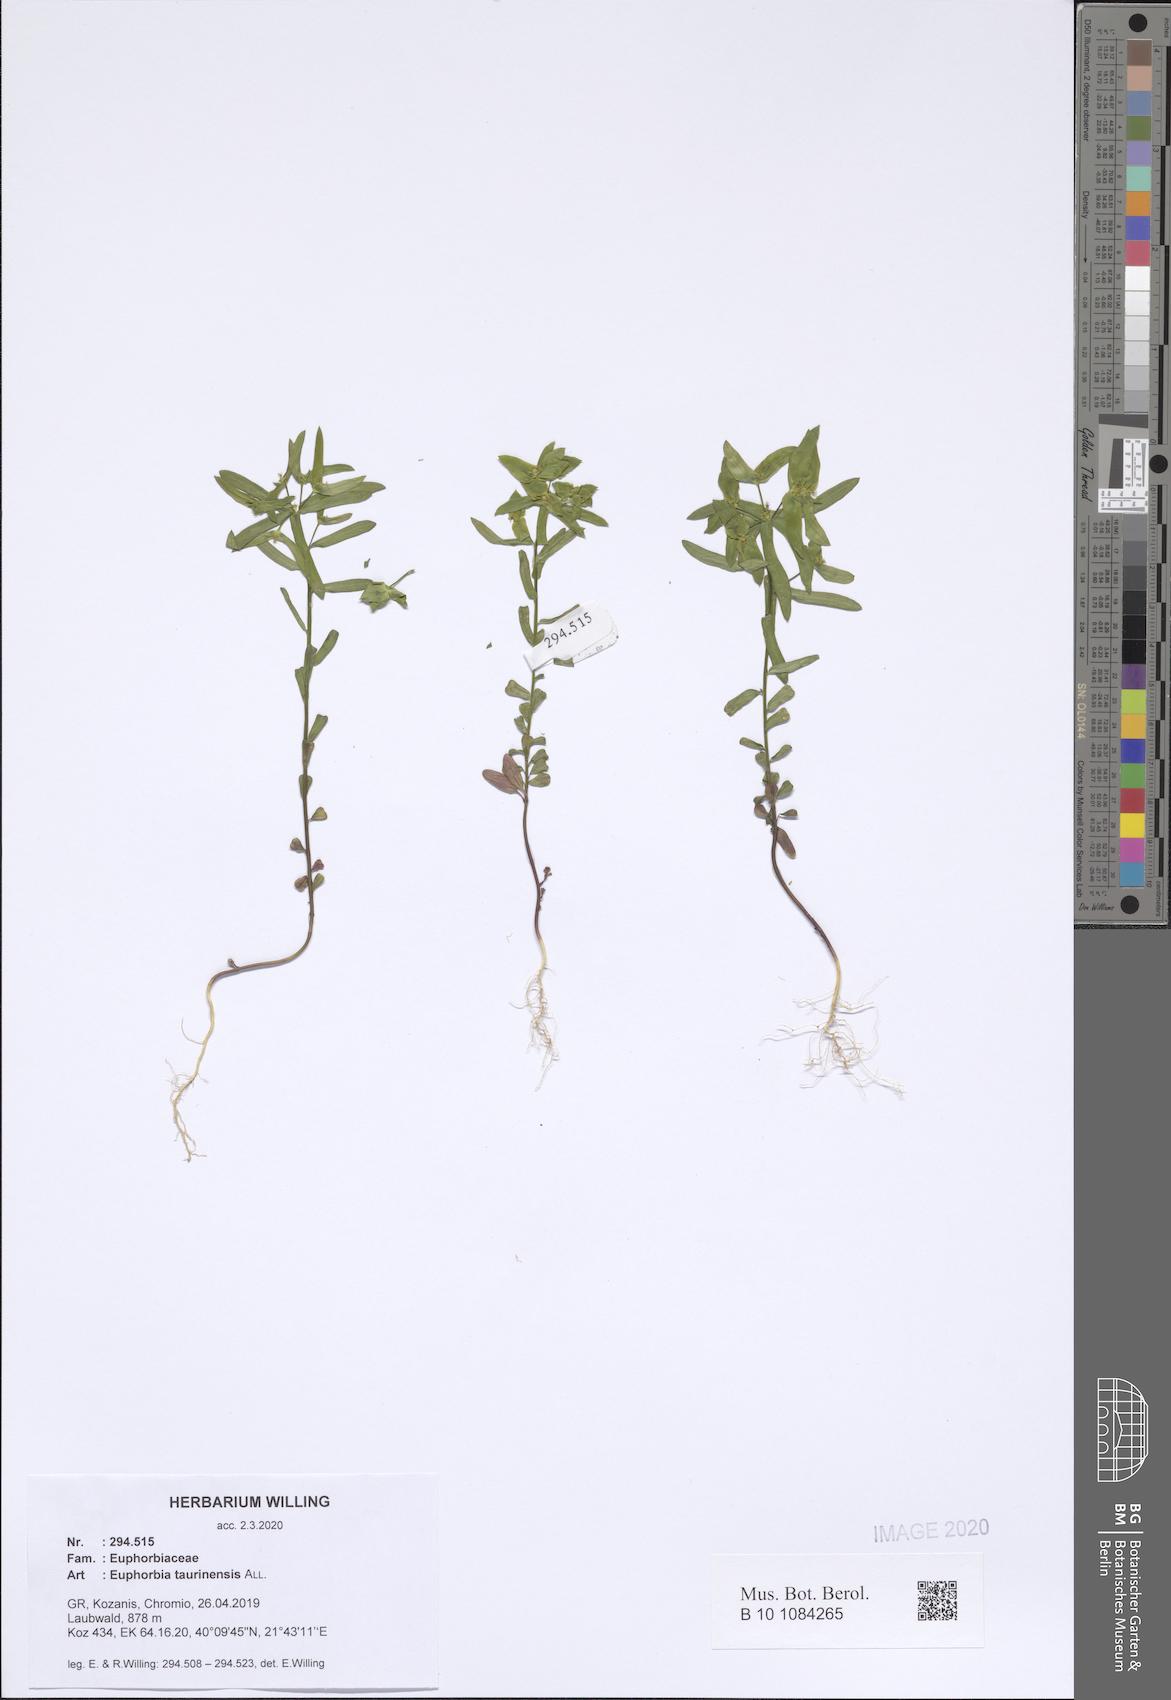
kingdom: Plantae
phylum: Tracheophyta
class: Magnoliopsida
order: Malpighiales
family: Euphorbiaceae
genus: Euphorbia
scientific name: Euphorbia taurinensis
